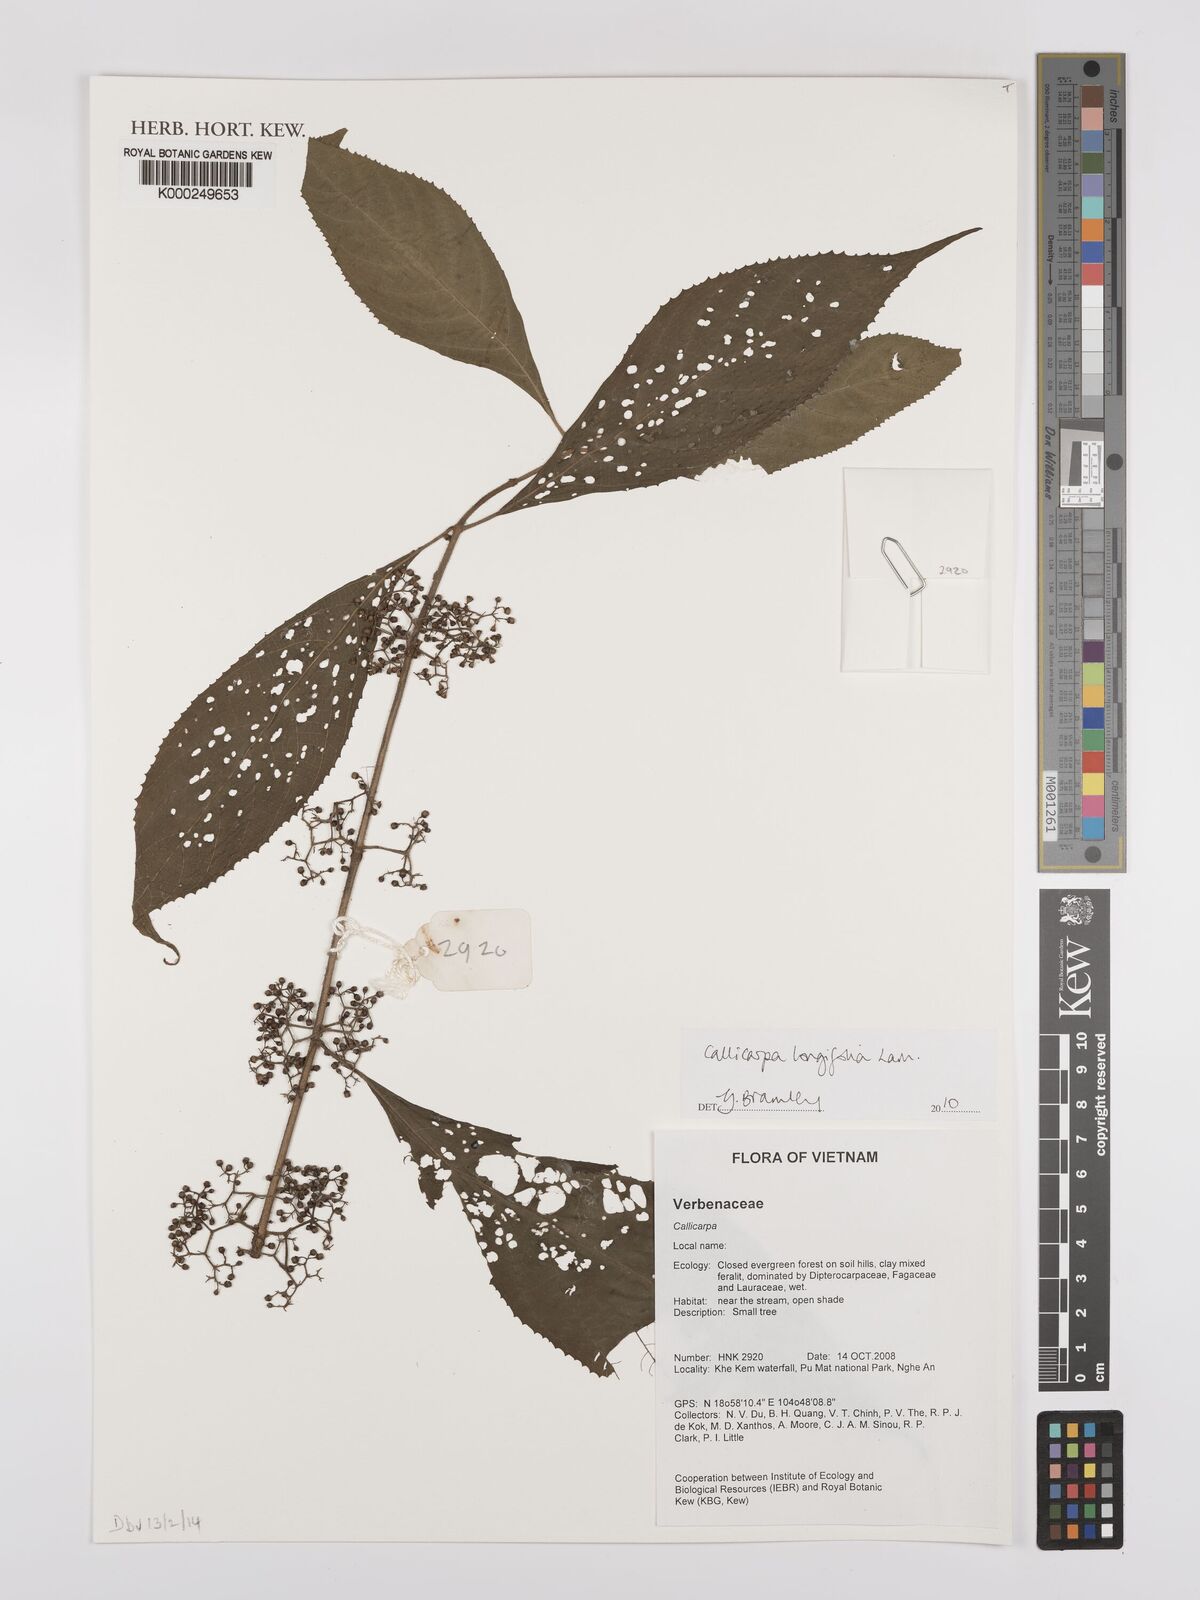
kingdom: Plantae
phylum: Tracheophyta
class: Magnoliopsida
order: Lamiales
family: Lamiaceae
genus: Callicarpa
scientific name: Callicarpa longifolia
